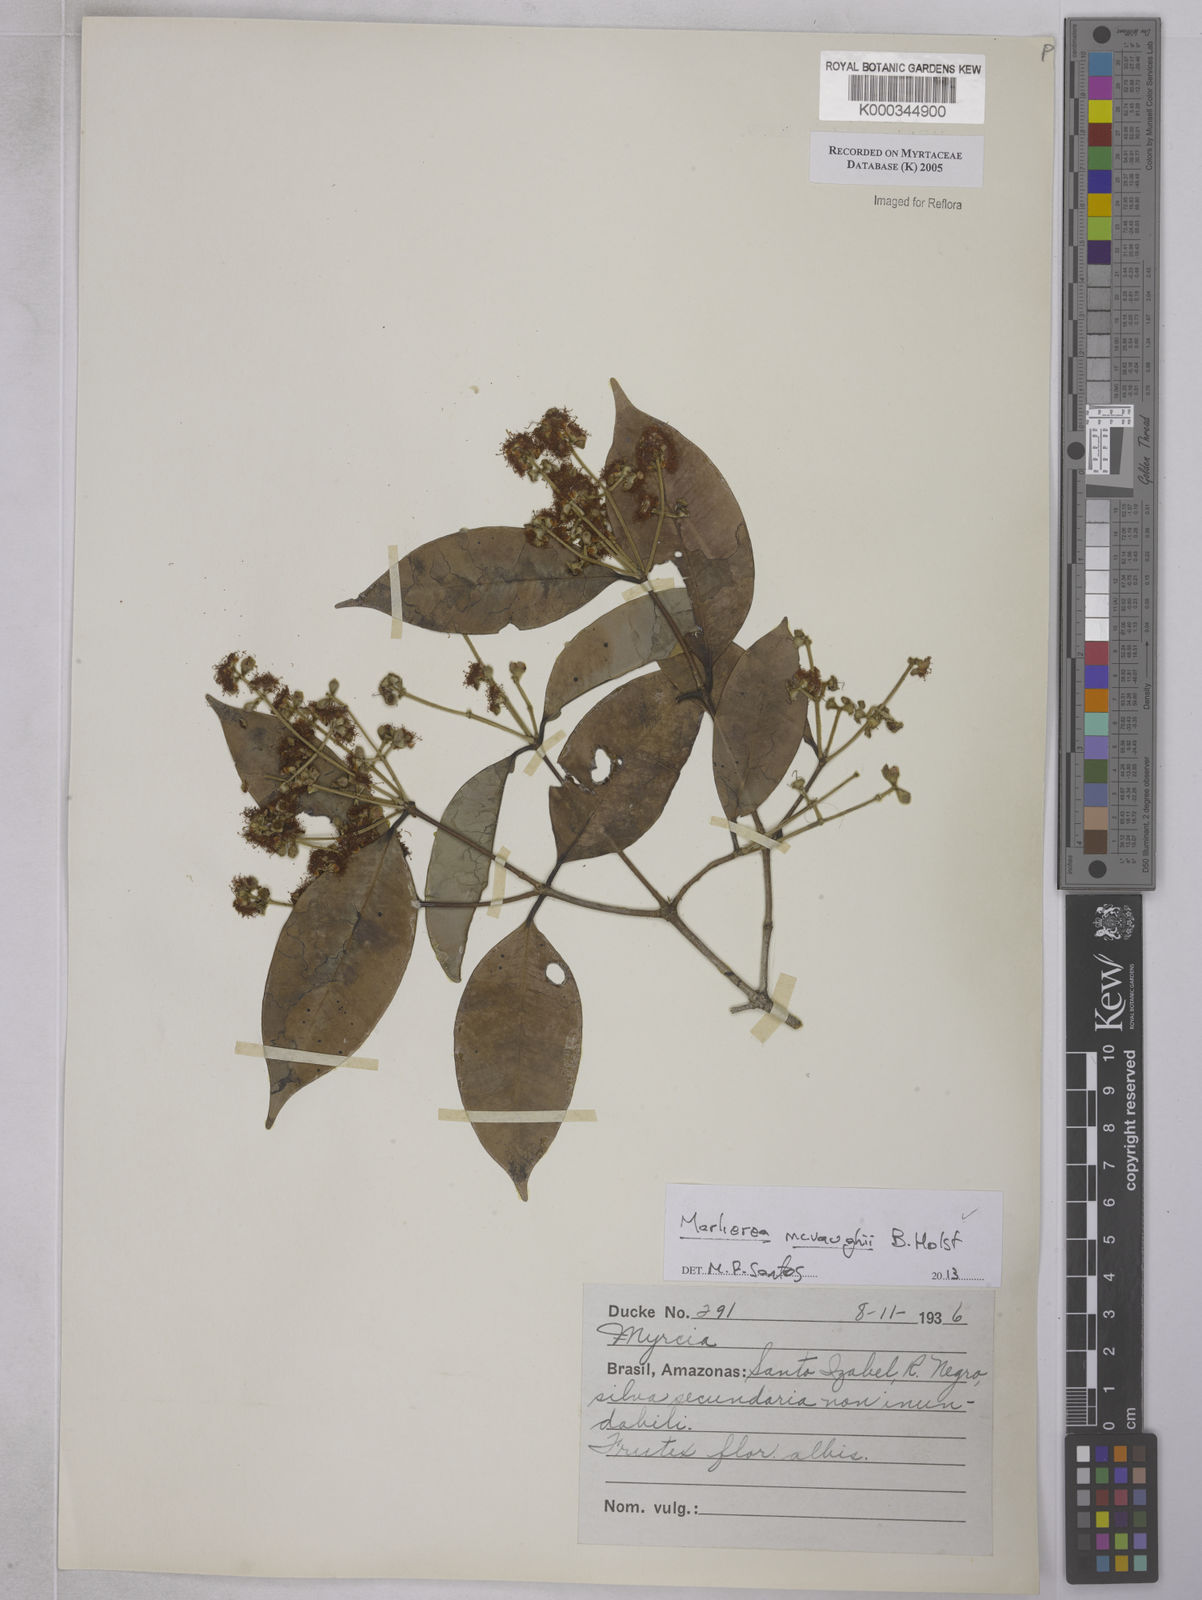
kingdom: Plantae
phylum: Tracheophyta
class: Magnoliopsida
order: Myrtales
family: Myrtaceae
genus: Myrcia
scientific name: Myrcia
